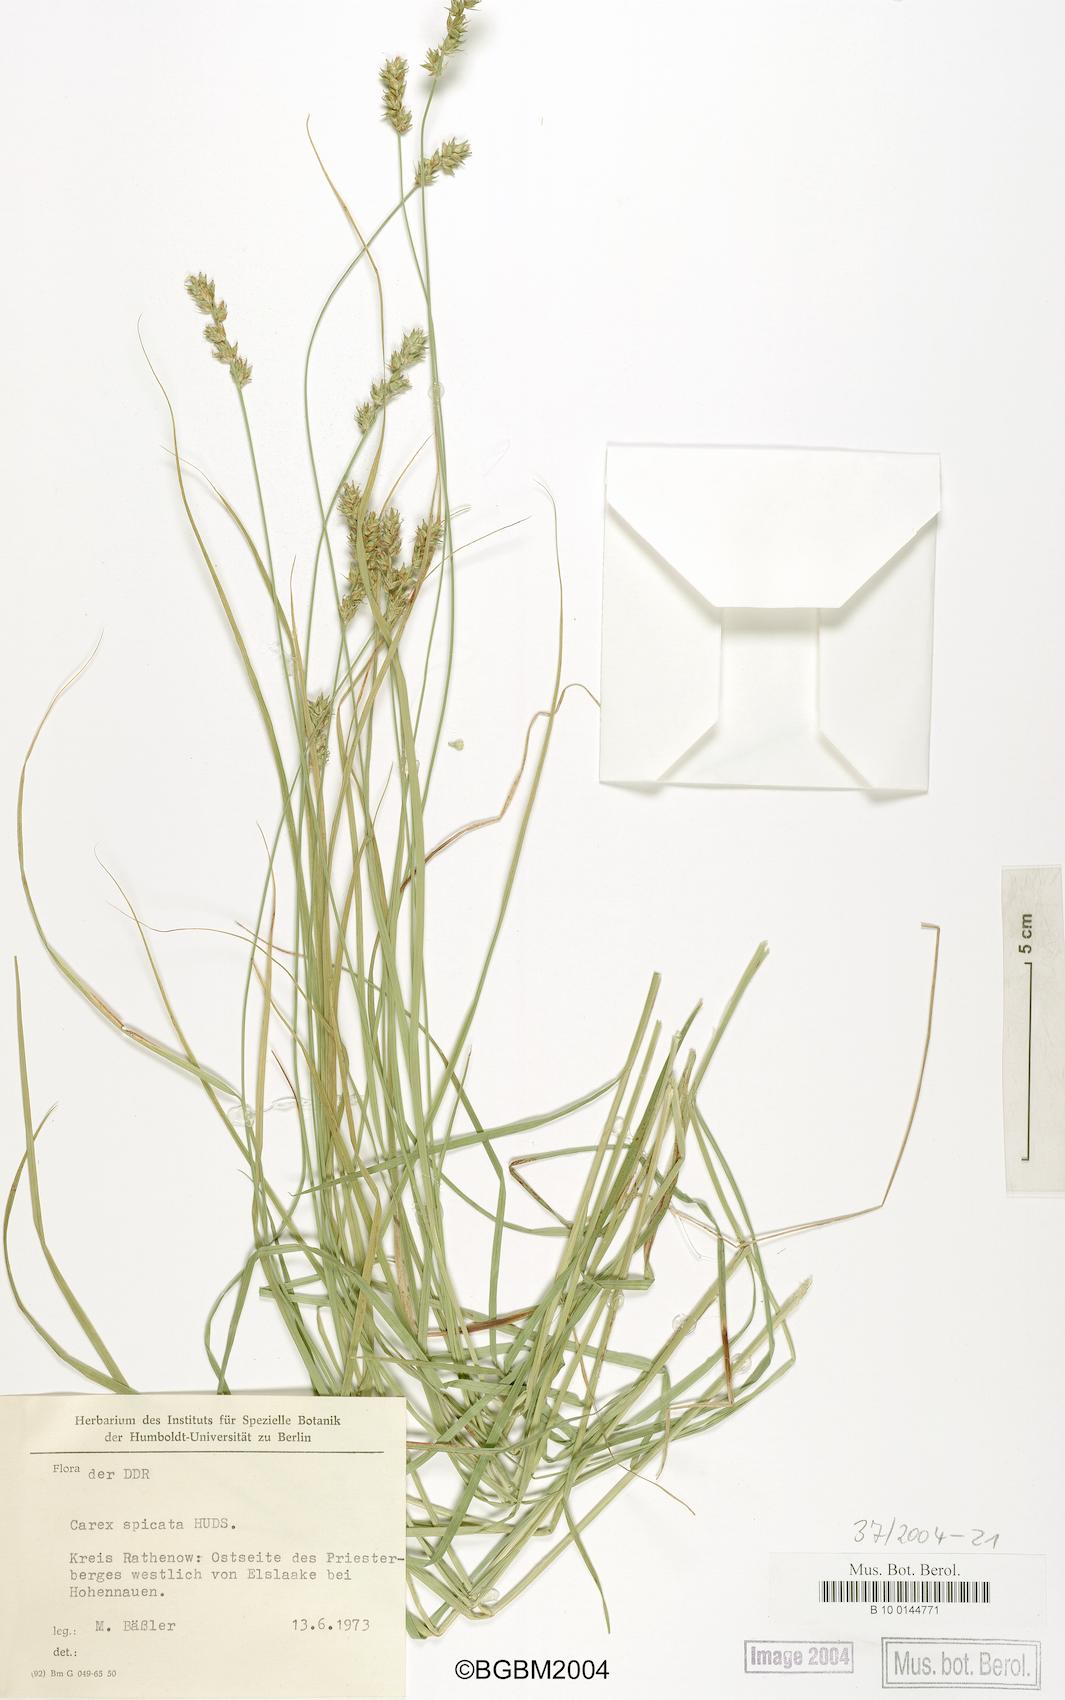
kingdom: Plantae
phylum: Tracheophyta
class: Liliopsida
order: Poales
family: Cyperaceae
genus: Carex
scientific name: Carex spicata
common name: Spiked sedge
